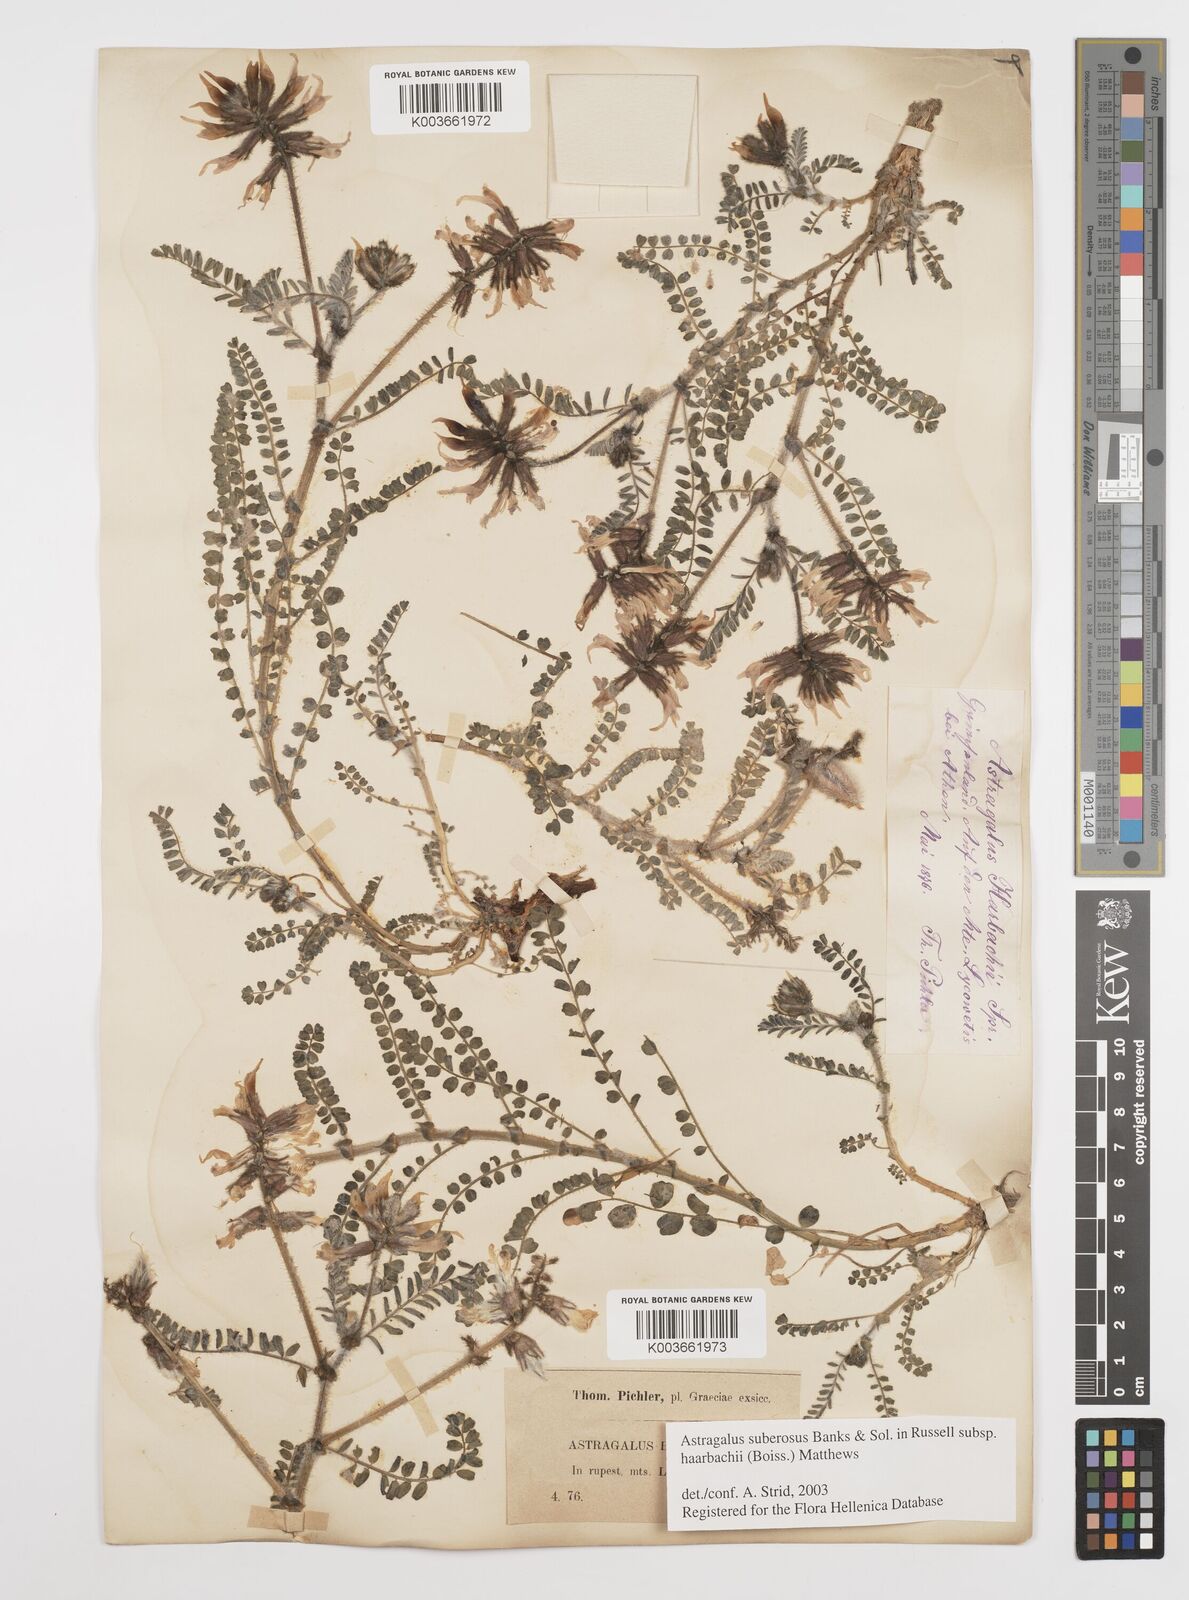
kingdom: Plantae
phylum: Tracheophyta
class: Magnoliopsida
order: Fabales
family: Fabaceae
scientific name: Fabaceae
